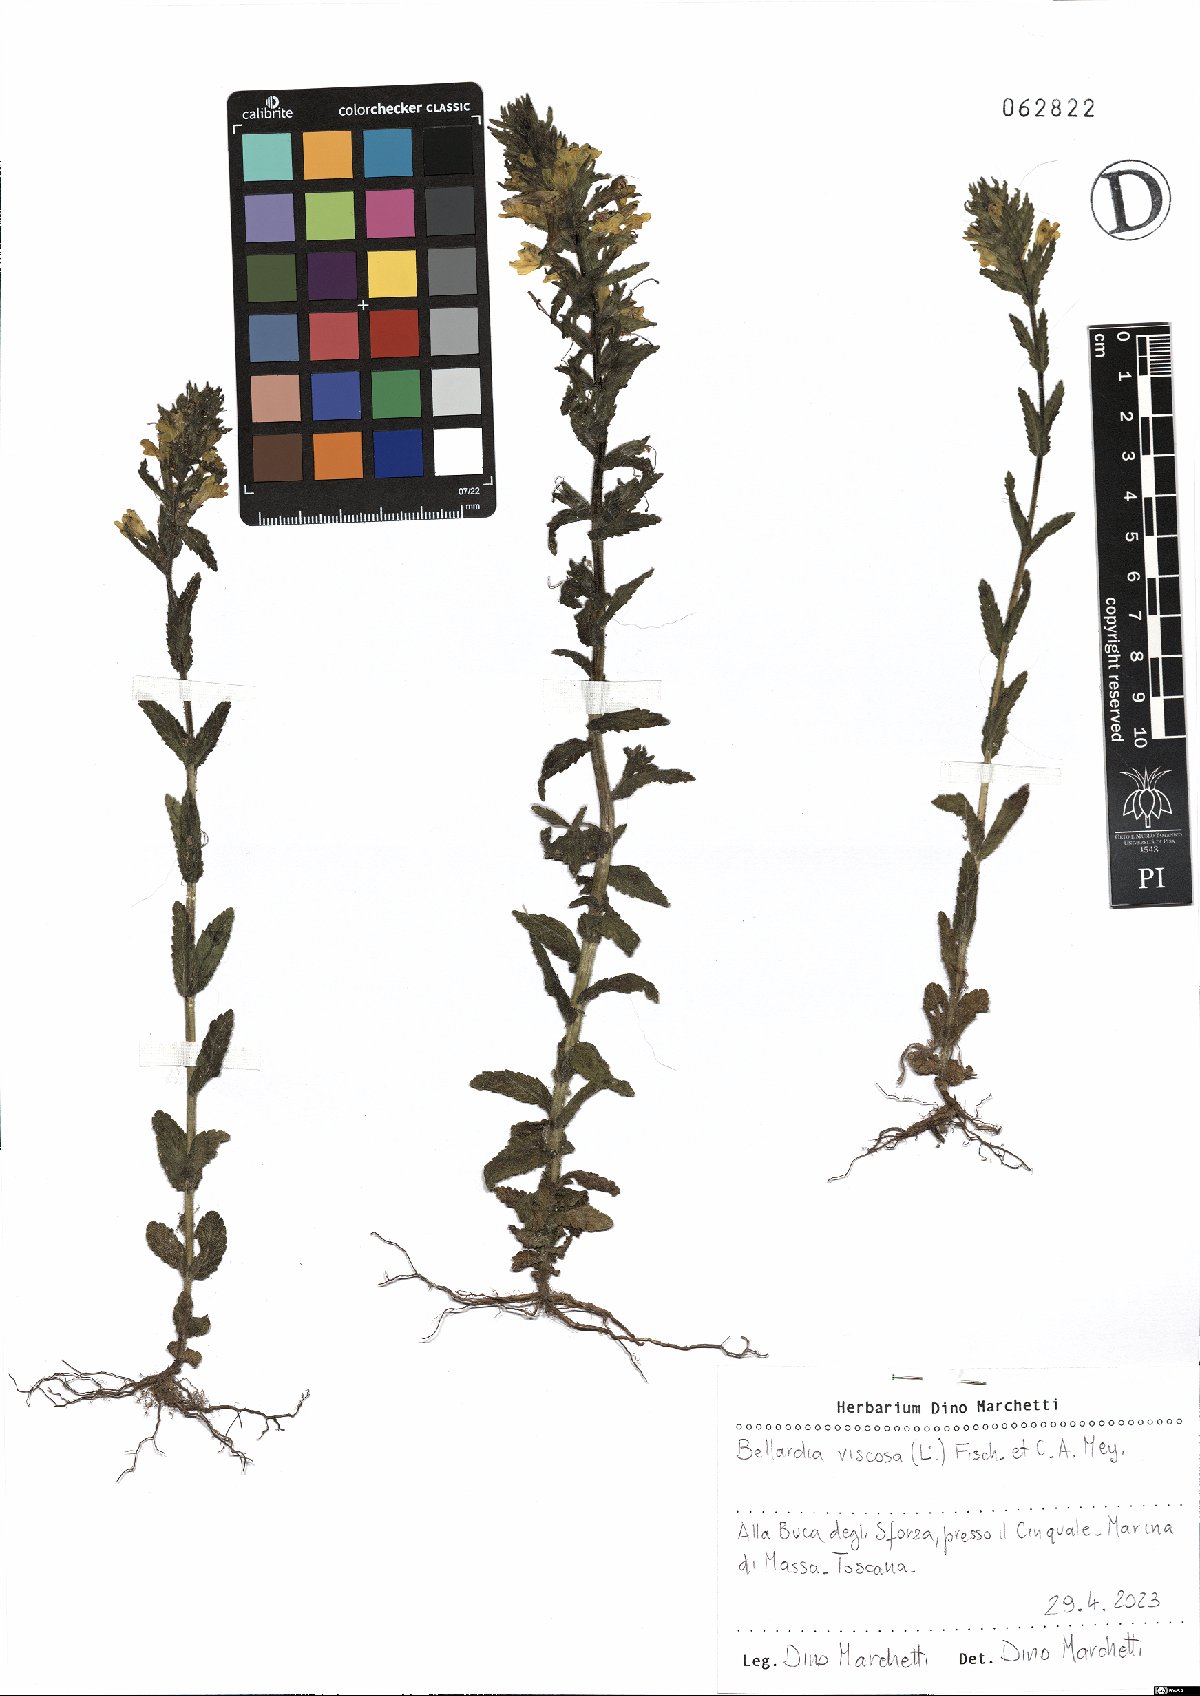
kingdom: Plantae
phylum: Tracheophyta
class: Magnoliopsida
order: Lamiales
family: Orobanchaceae
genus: Bellardia
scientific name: Bellardia viscosa
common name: Sticky parentucellia
